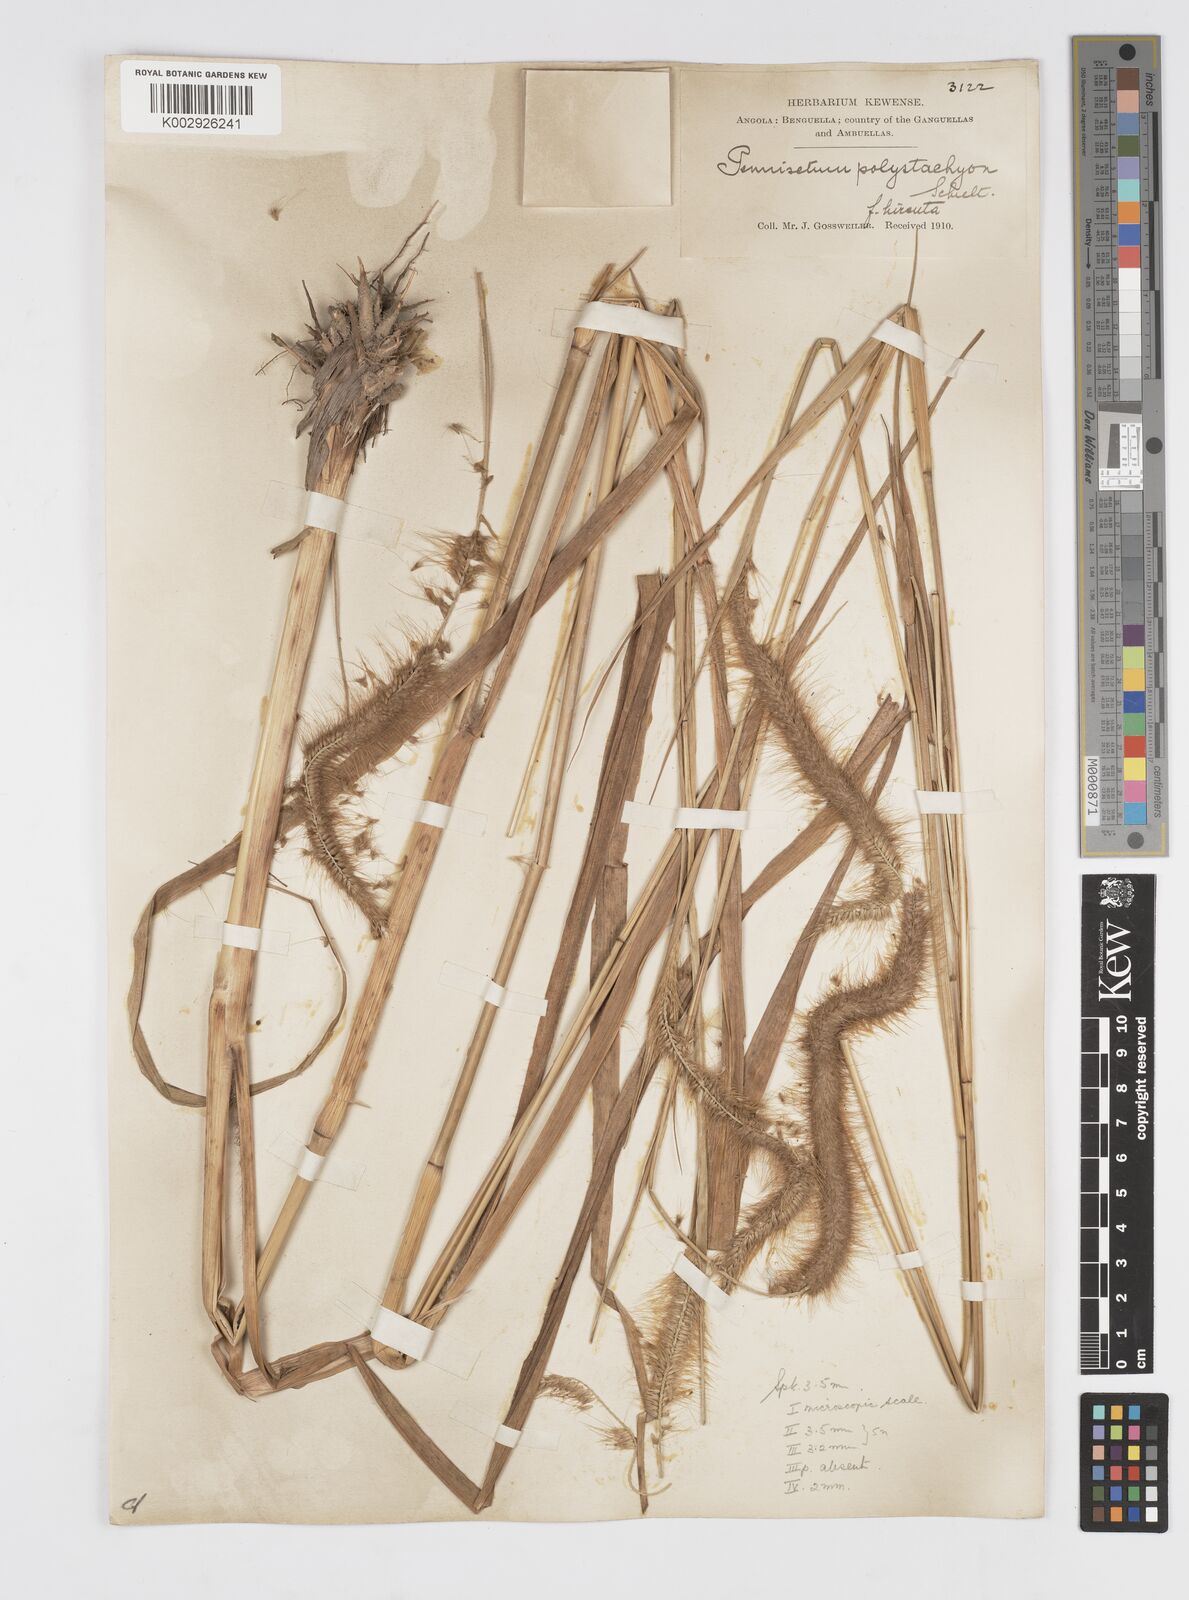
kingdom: Plantae
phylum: Tracheophyta
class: Liliopsida
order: Poales
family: Poaceae
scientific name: Poaceae
